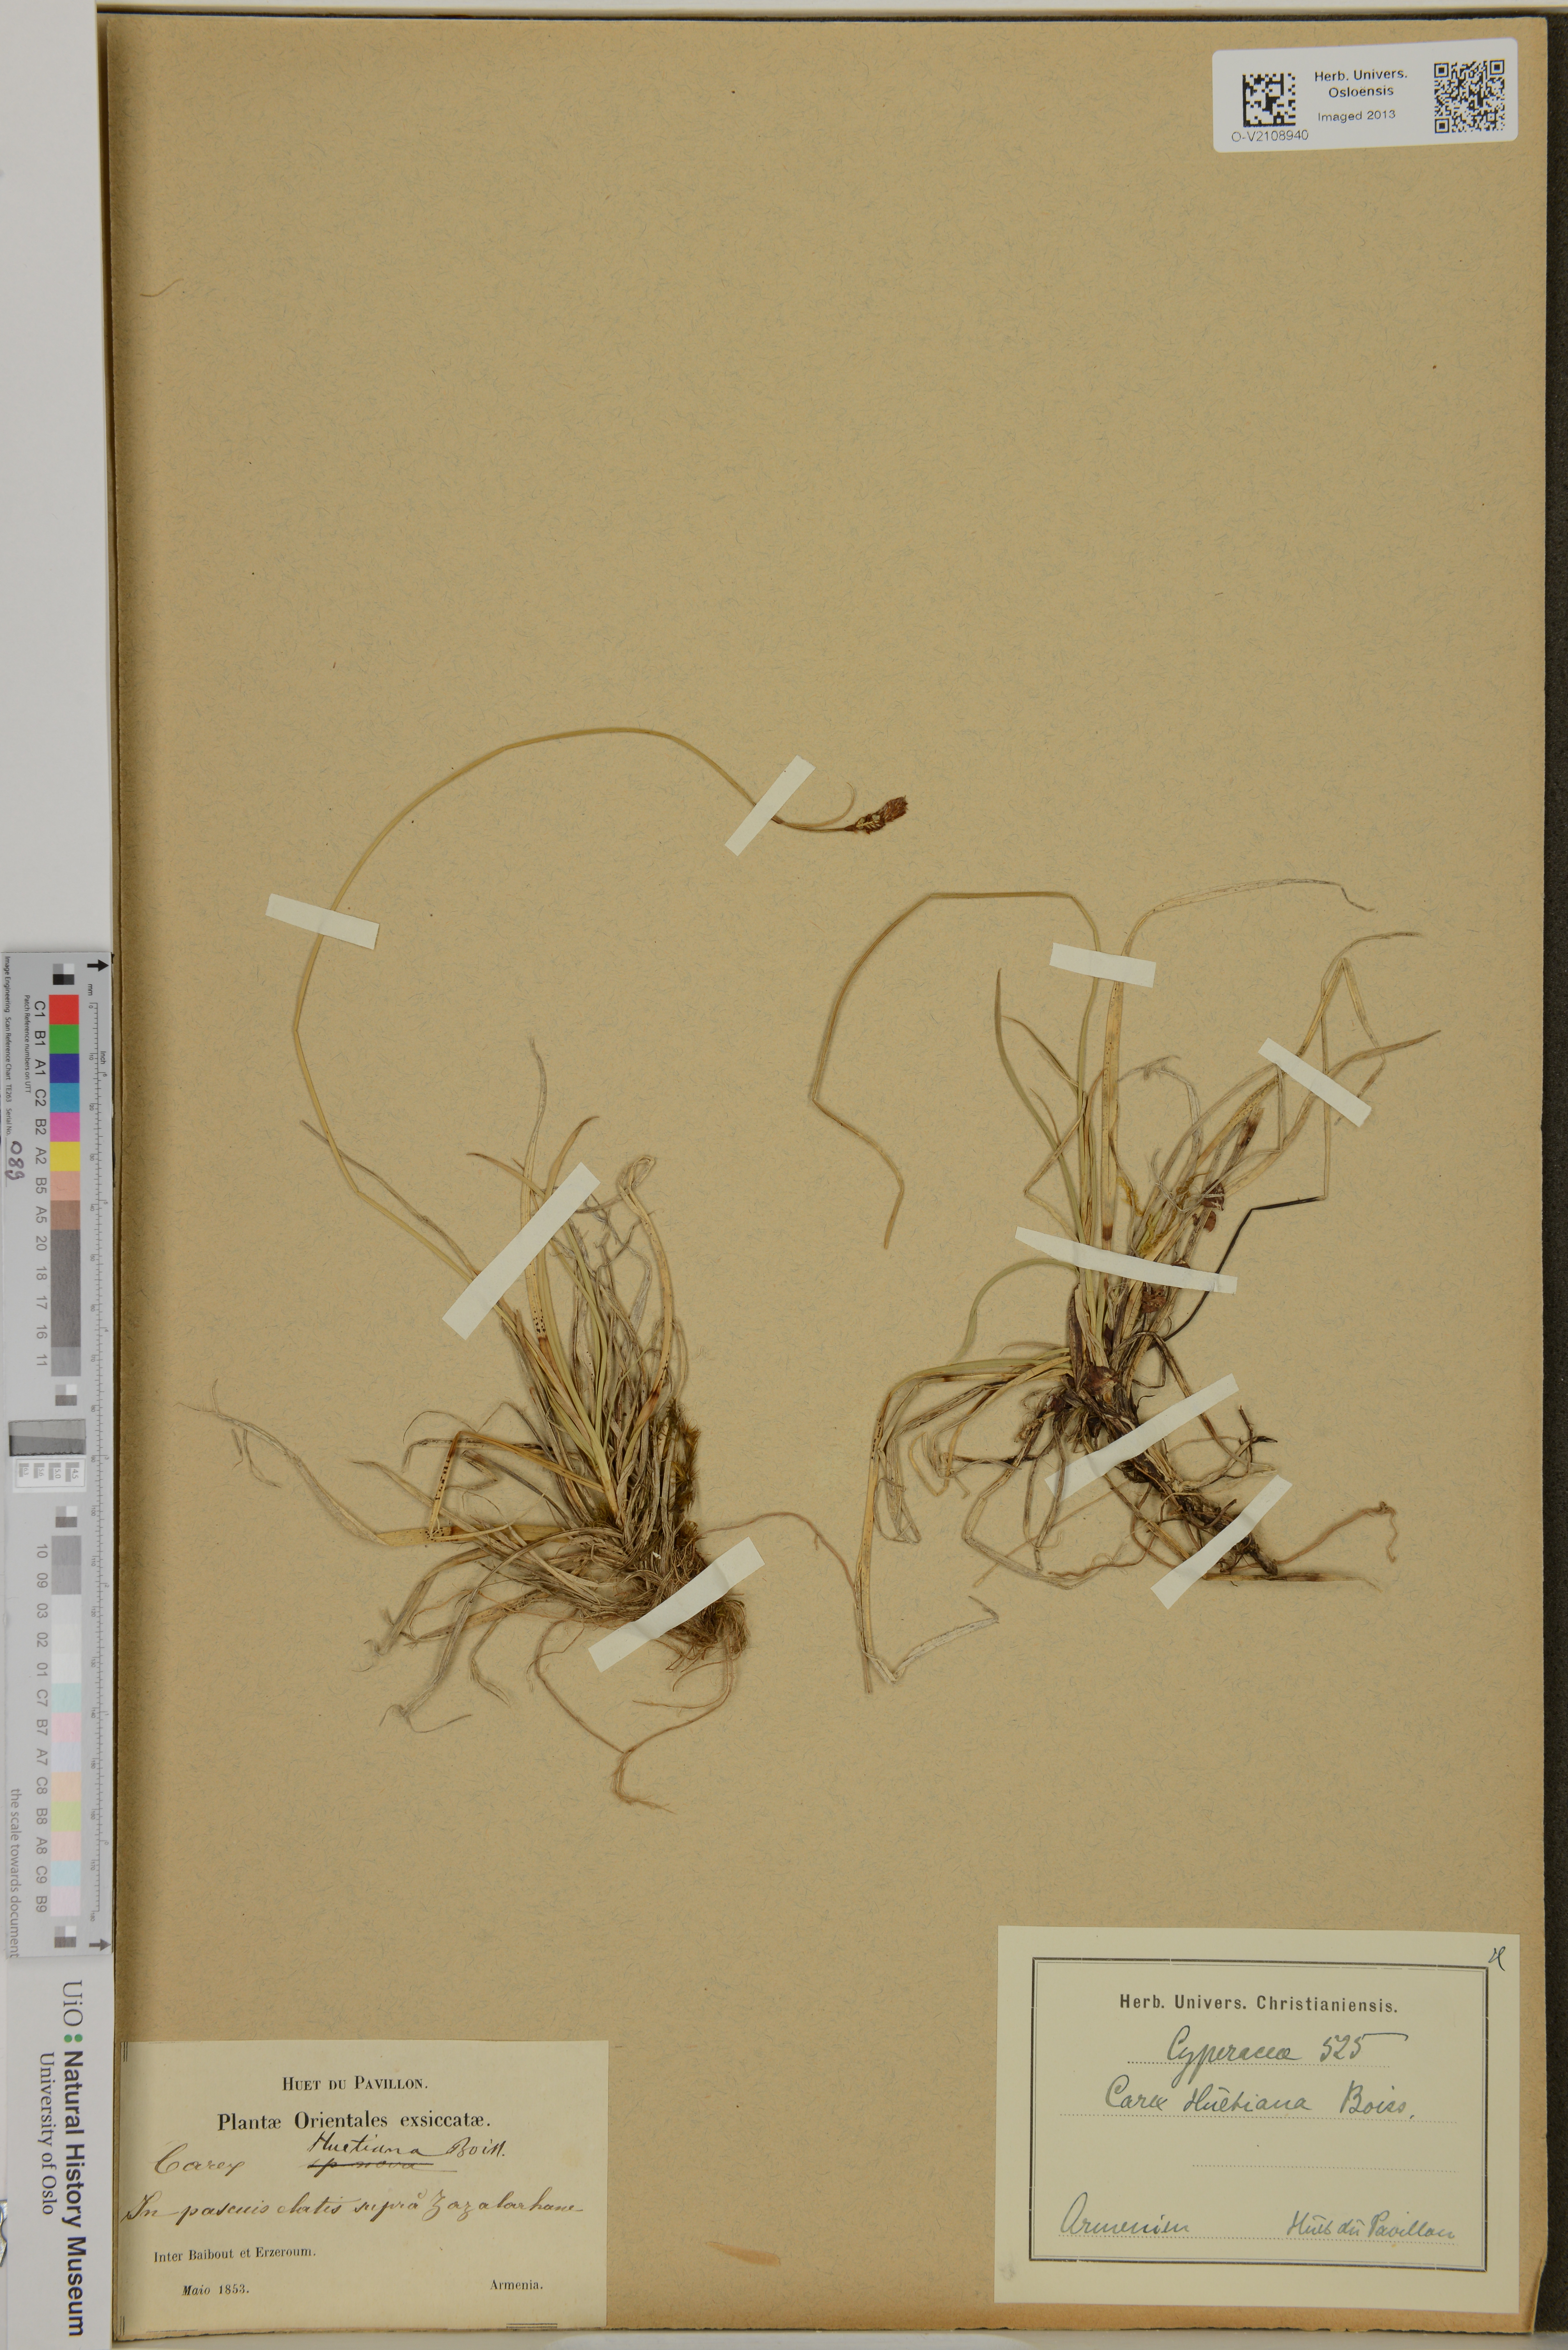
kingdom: Plantae
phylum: Tracheophyta
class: Liliopsida
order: Poales
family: Cyperaceae
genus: Carex
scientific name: Carex umbrosa
